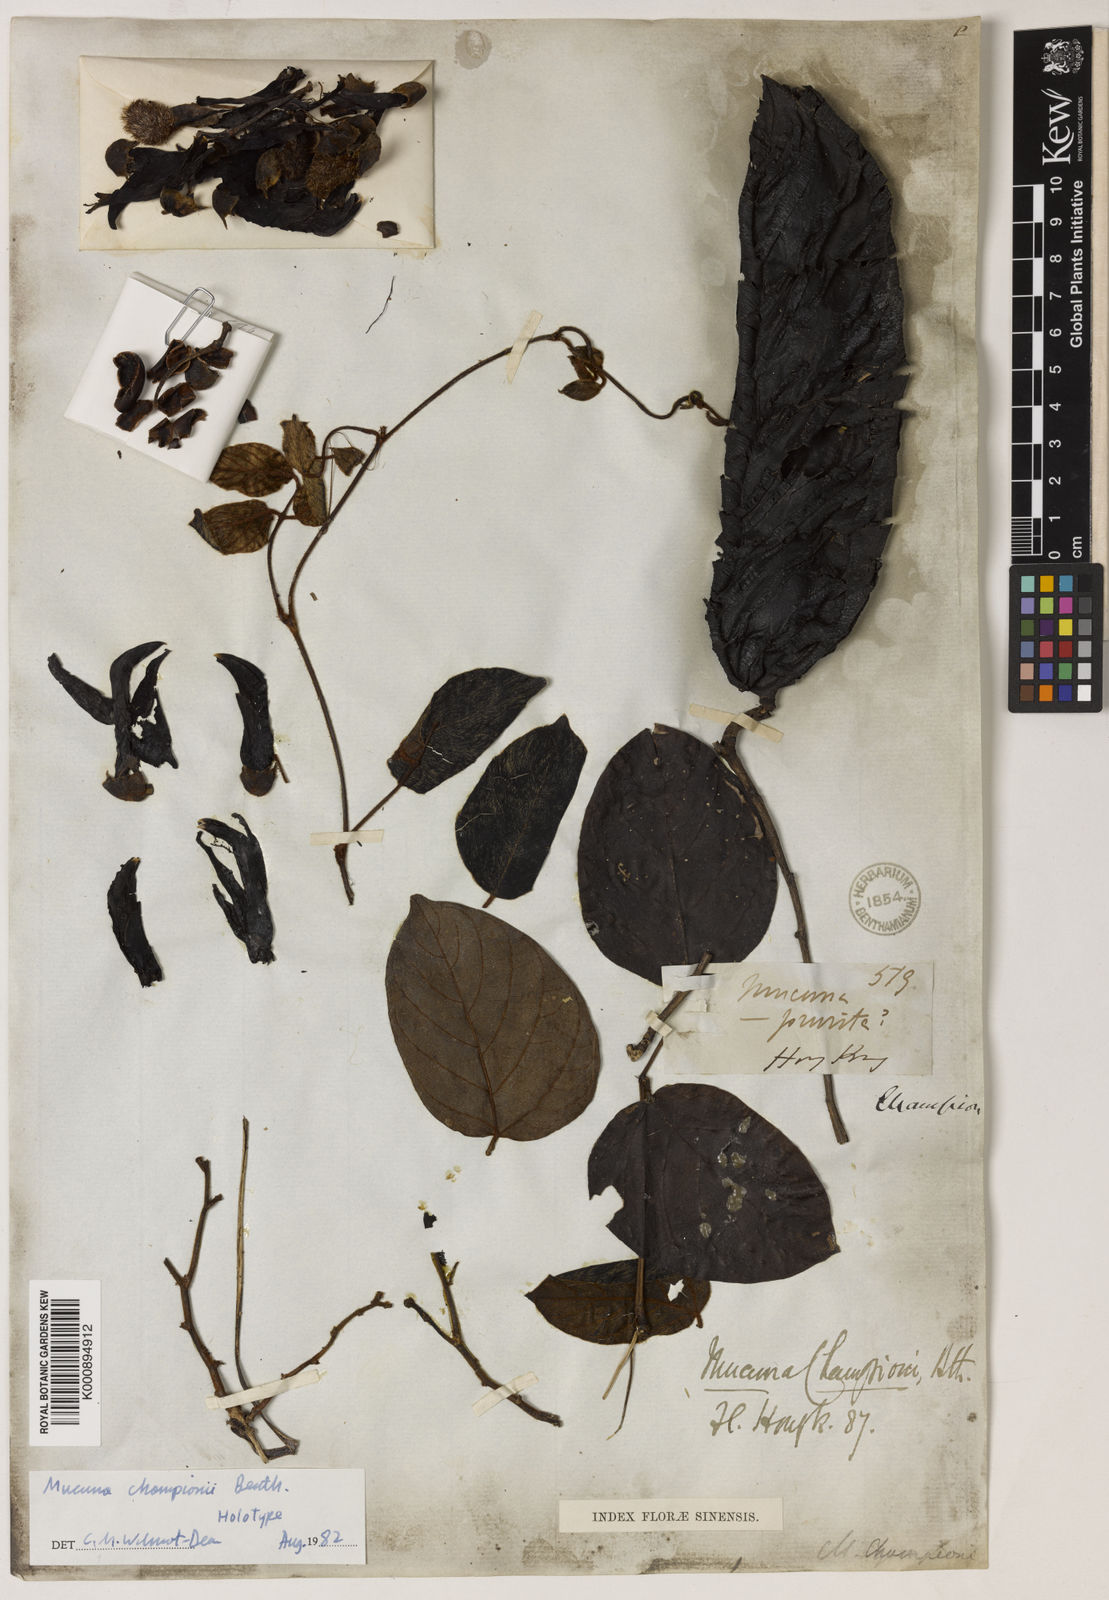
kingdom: Plantae
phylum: Tracheophyta
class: Magnoliopsida
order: Fabales
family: Fabaceae
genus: Mucuna
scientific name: Mucuna championii
